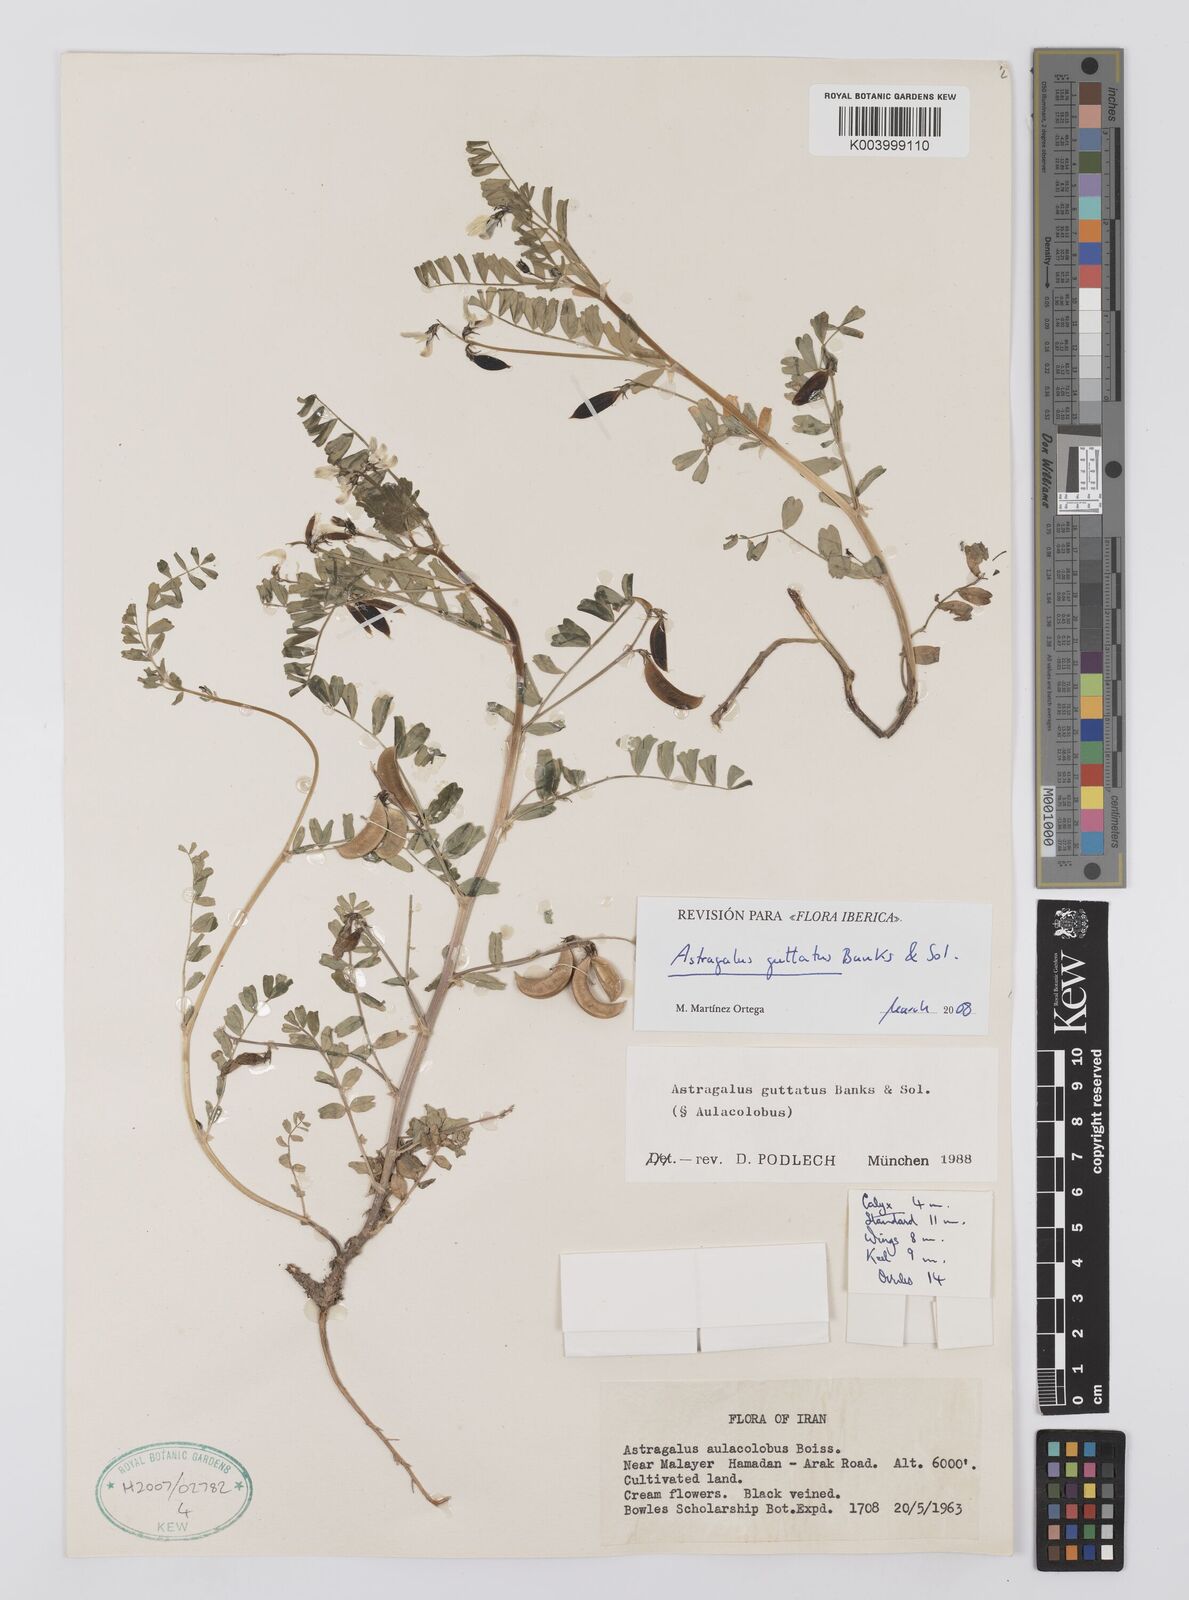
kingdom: Plantae
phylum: Tracheophyta
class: Magnoliopsida
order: Fabales
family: Fabaceae
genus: Astragalus
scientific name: Astragalus guttatus
